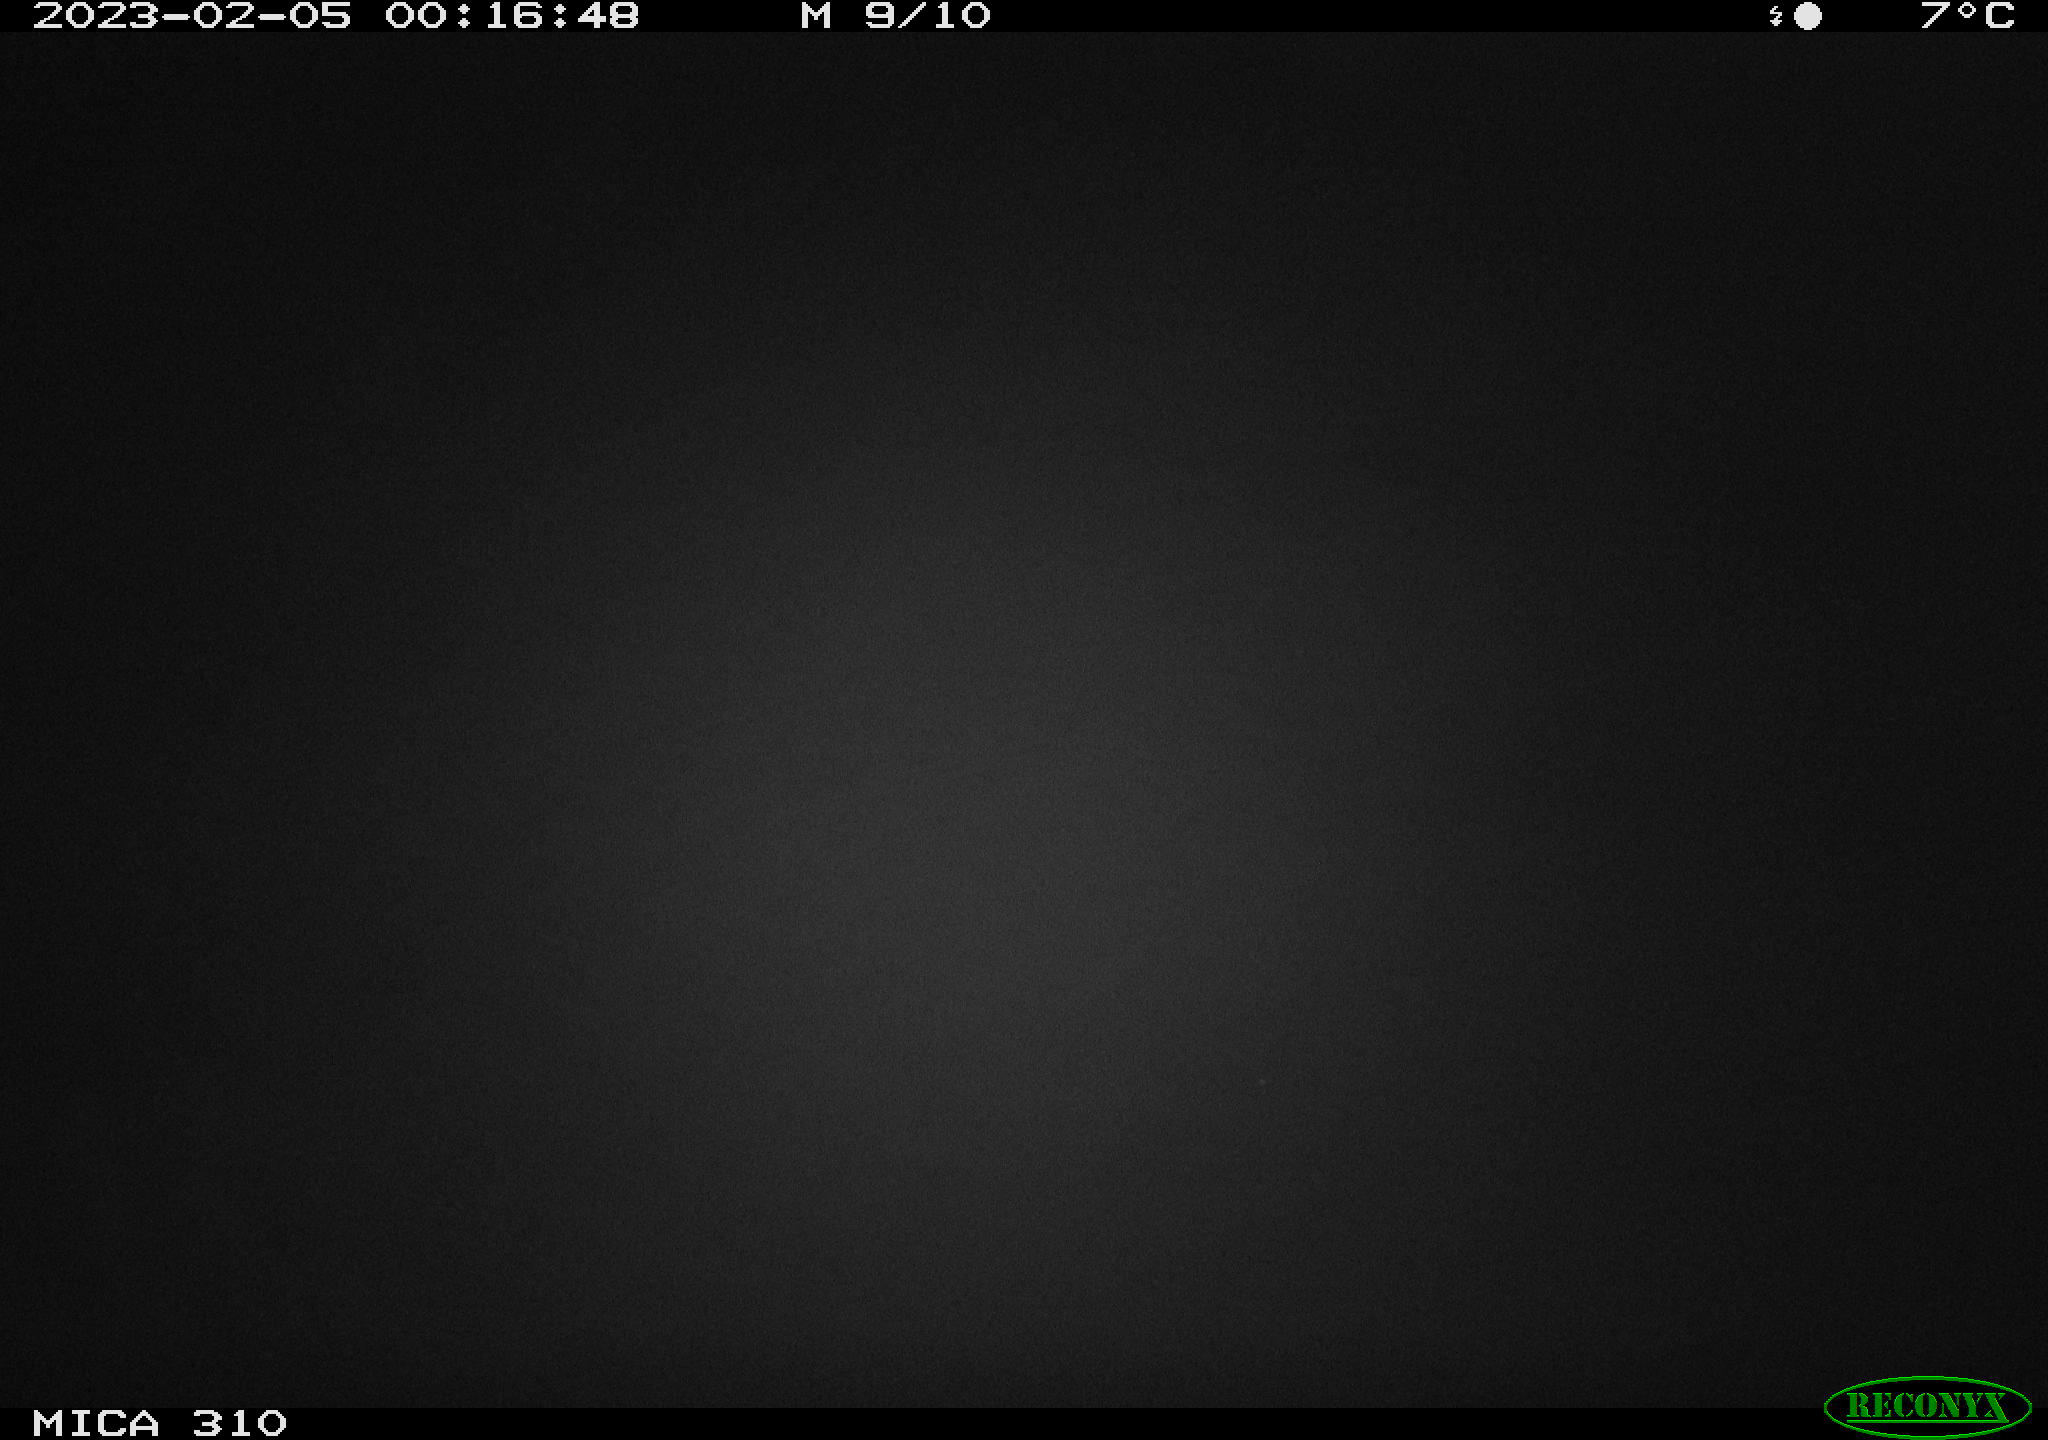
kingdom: Animalia
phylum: Chordata
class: Mammalia
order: Rodentia
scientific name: Rodentia
